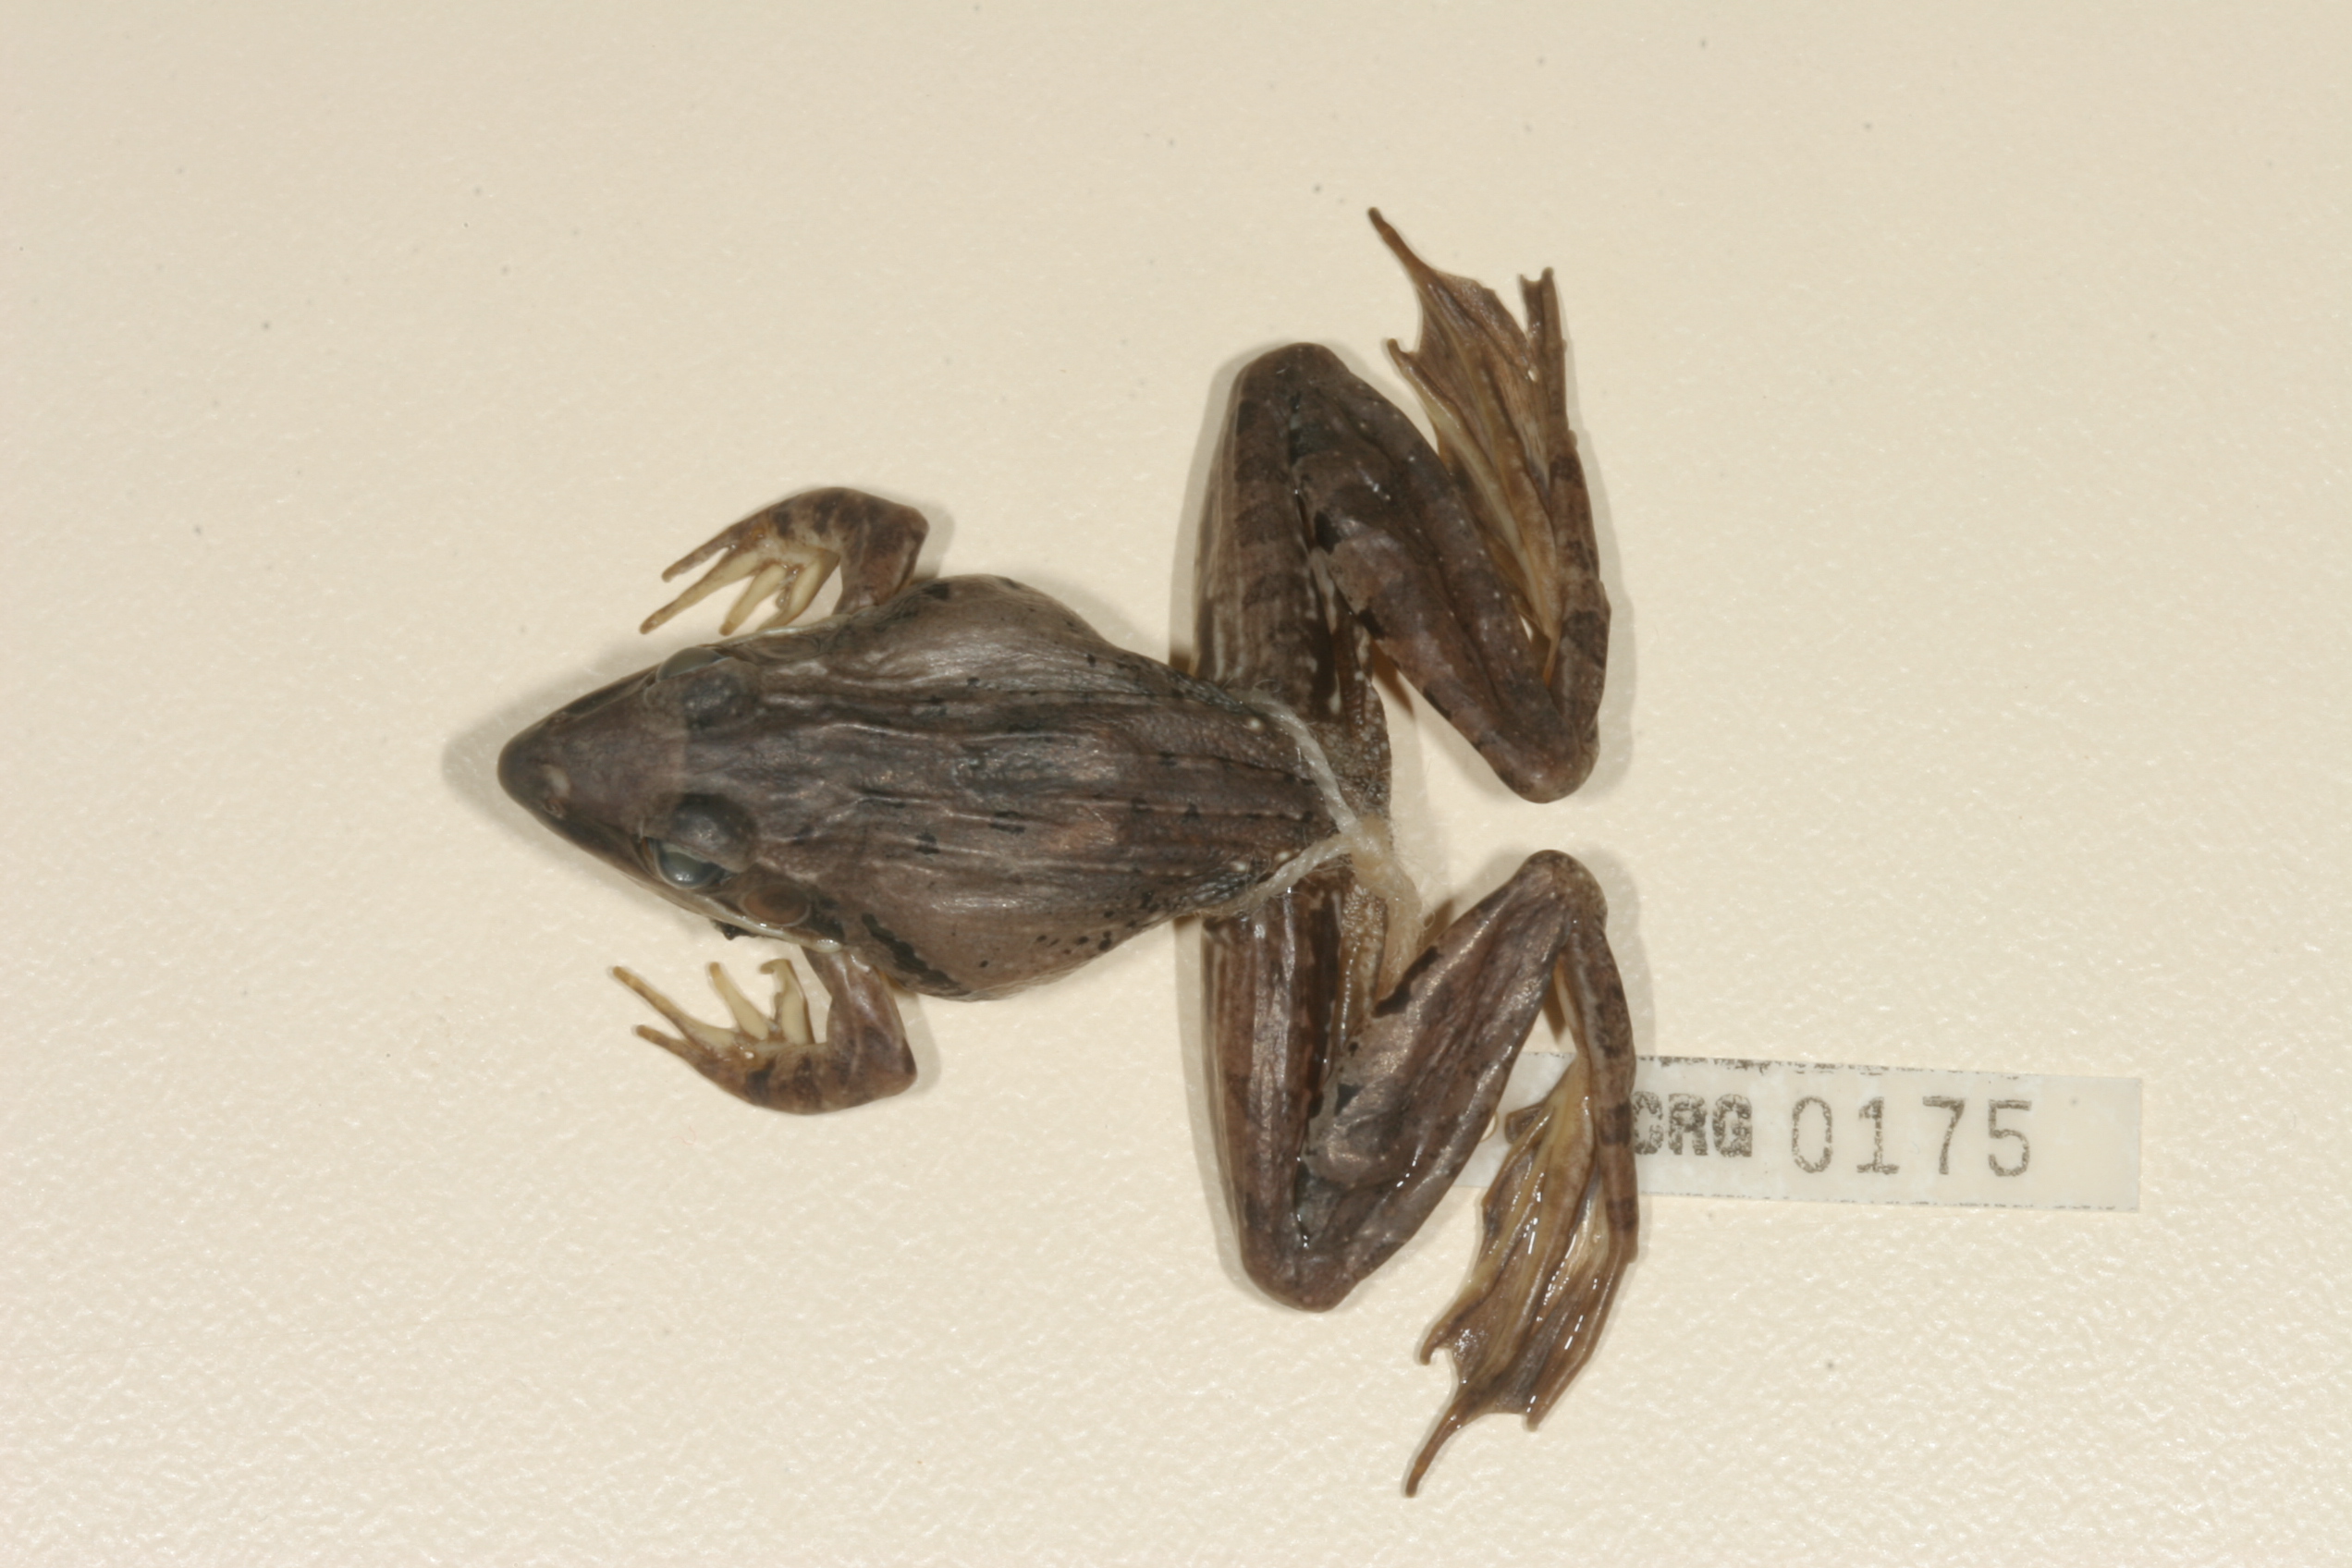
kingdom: Animalia
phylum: Chordata
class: Amphibia
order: Anura
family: Ptychadenidae
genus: Ptychadena
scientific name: Ptychadena anchietae
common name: Anchieta's ridged frog
